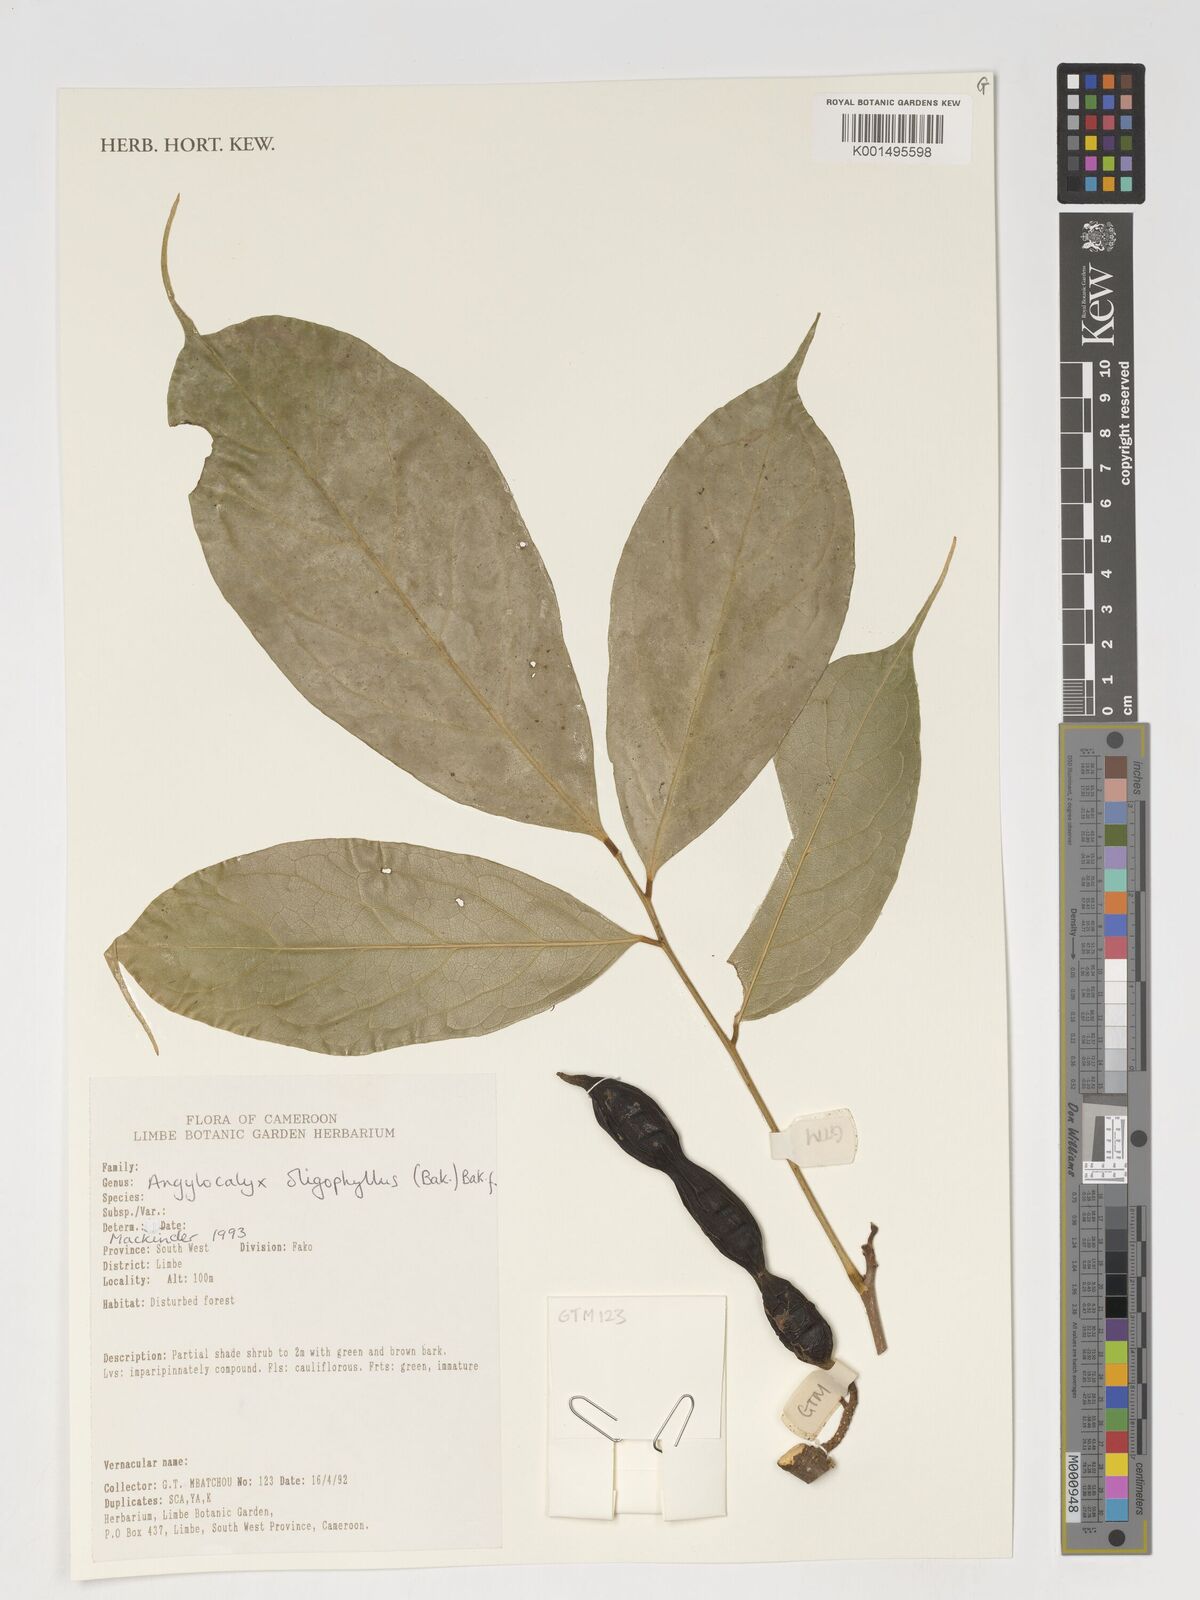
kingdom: Plantae
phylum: Tracheophyta
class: Magnoliopsida
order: Fabales
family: Fabaceae
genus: Angylocalyx
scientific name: Angylocalyx oligophyllus
